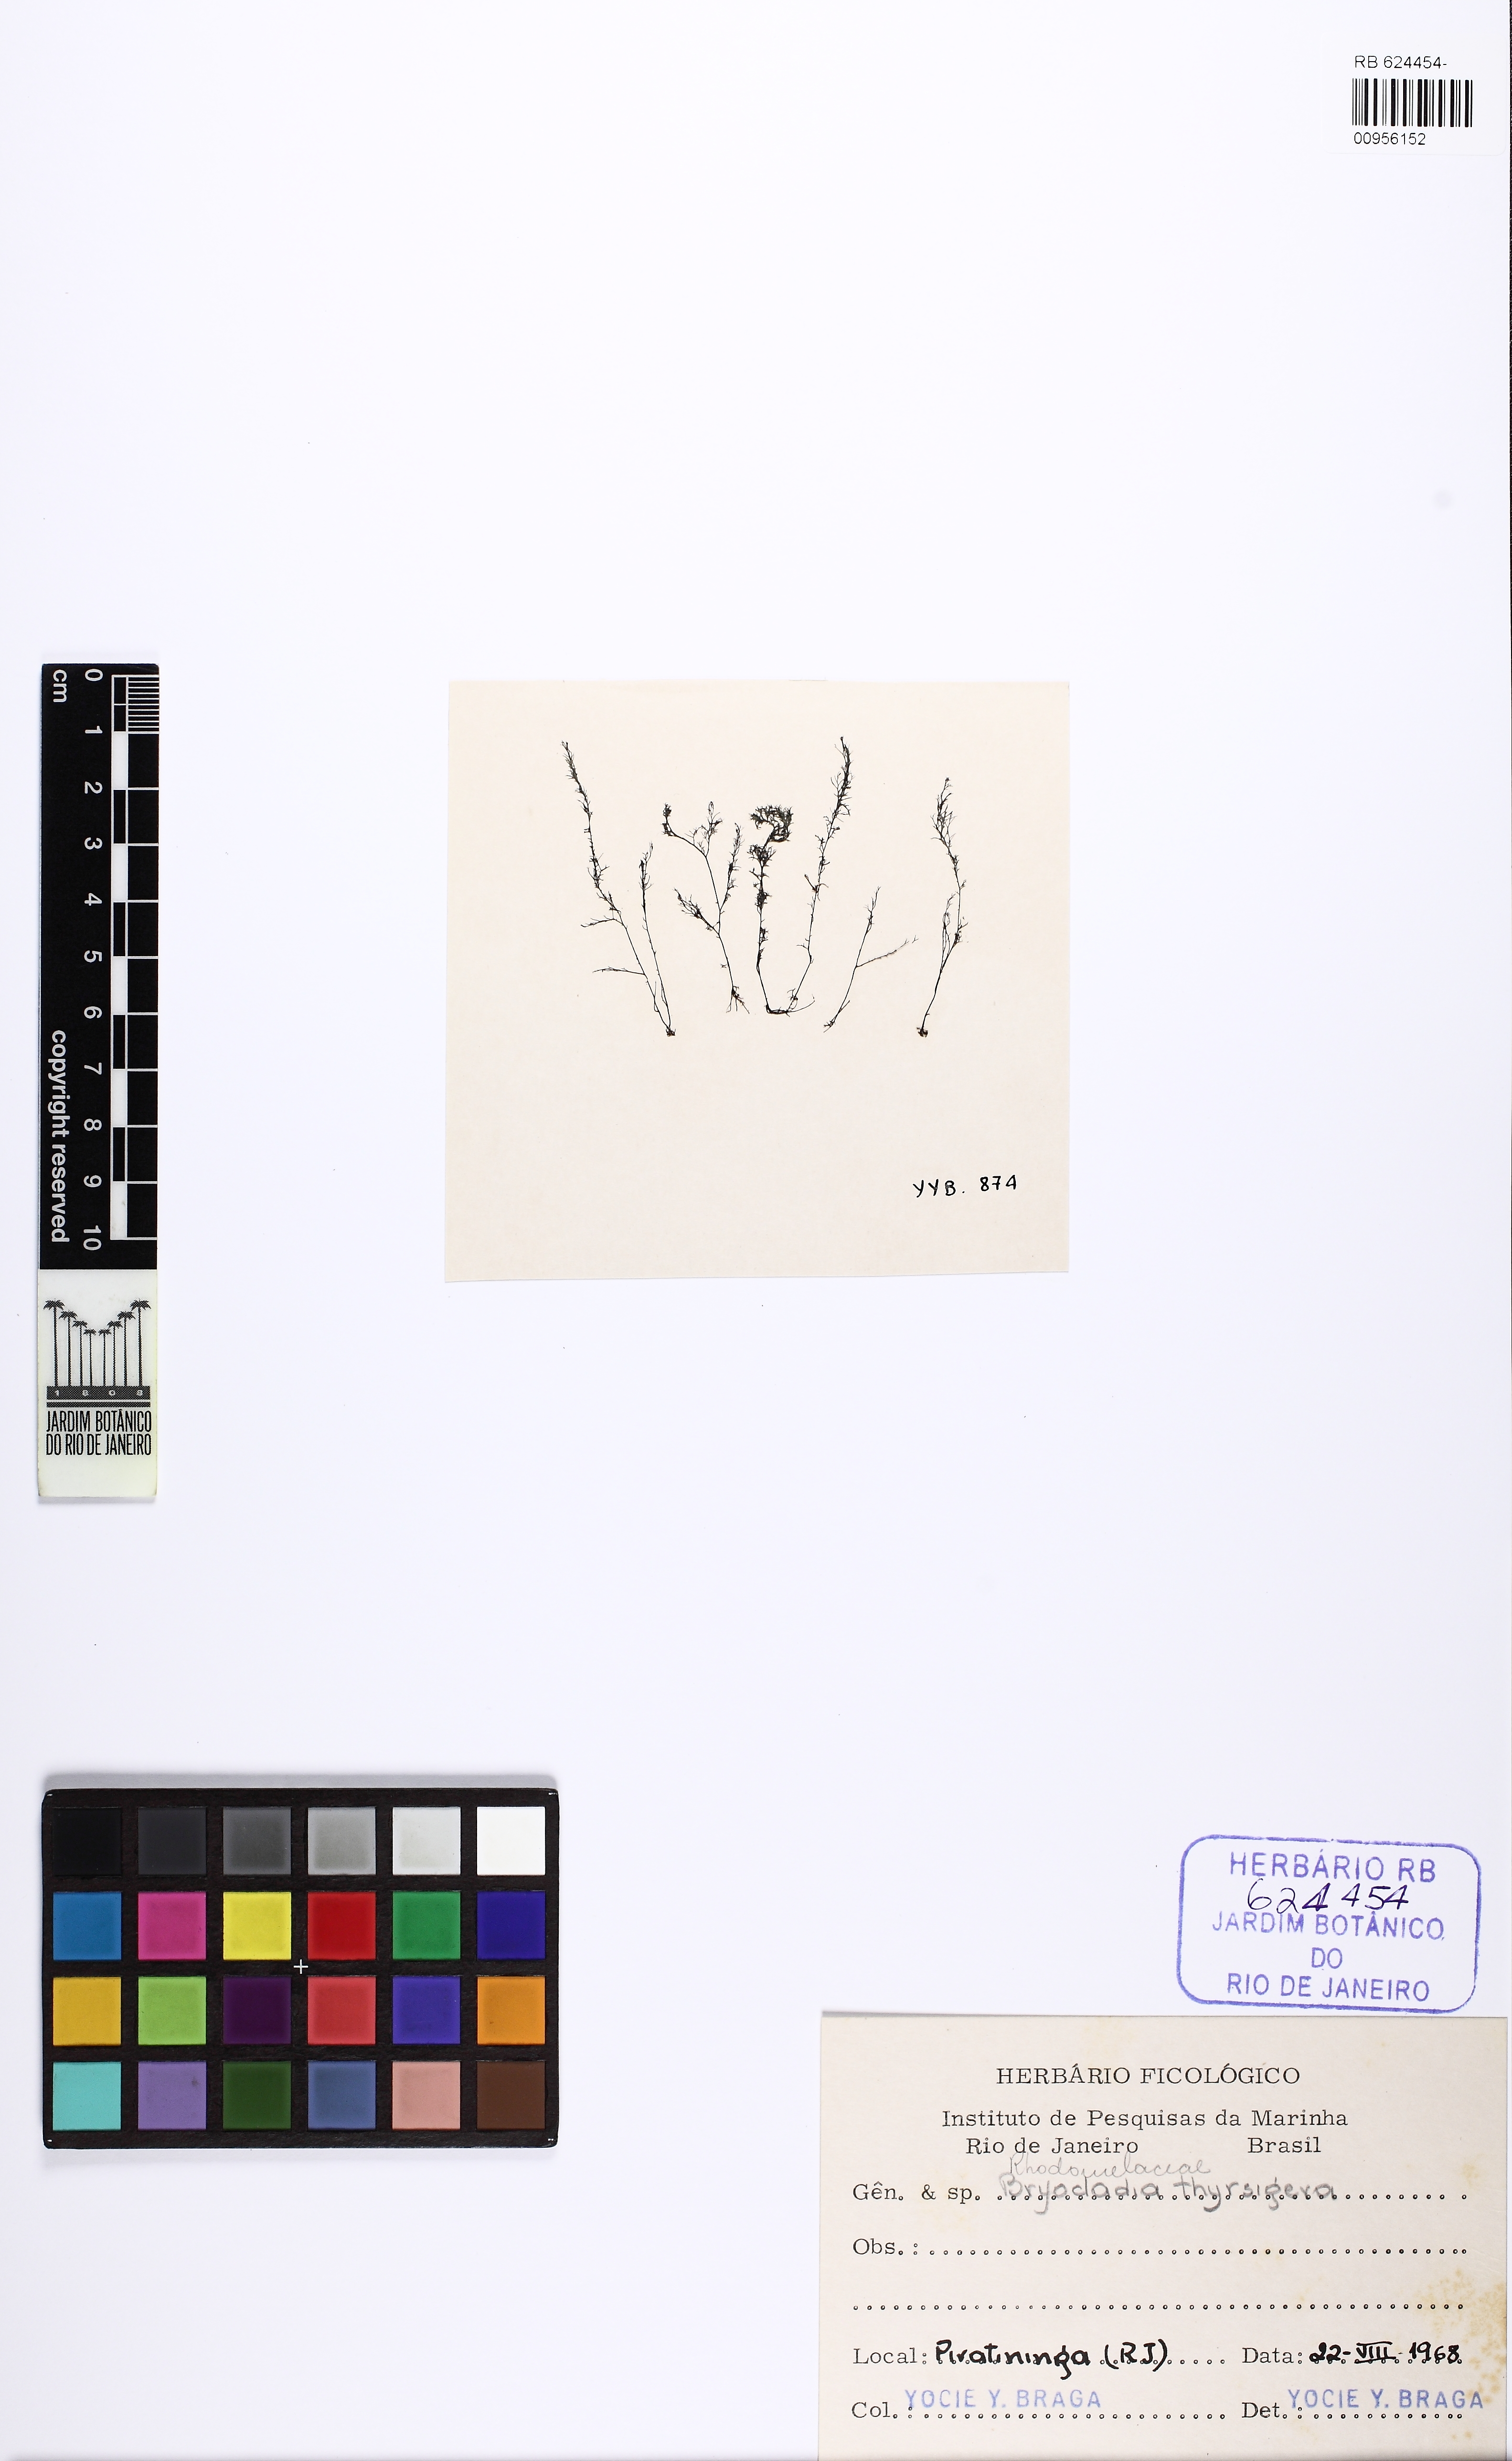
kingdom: Plantae
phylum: Rhodophyta
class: Florideophyceae
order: Ceramiales
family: Rhodomelaceae
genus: Bryocladia
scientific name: Bryocladia thyrsigera
